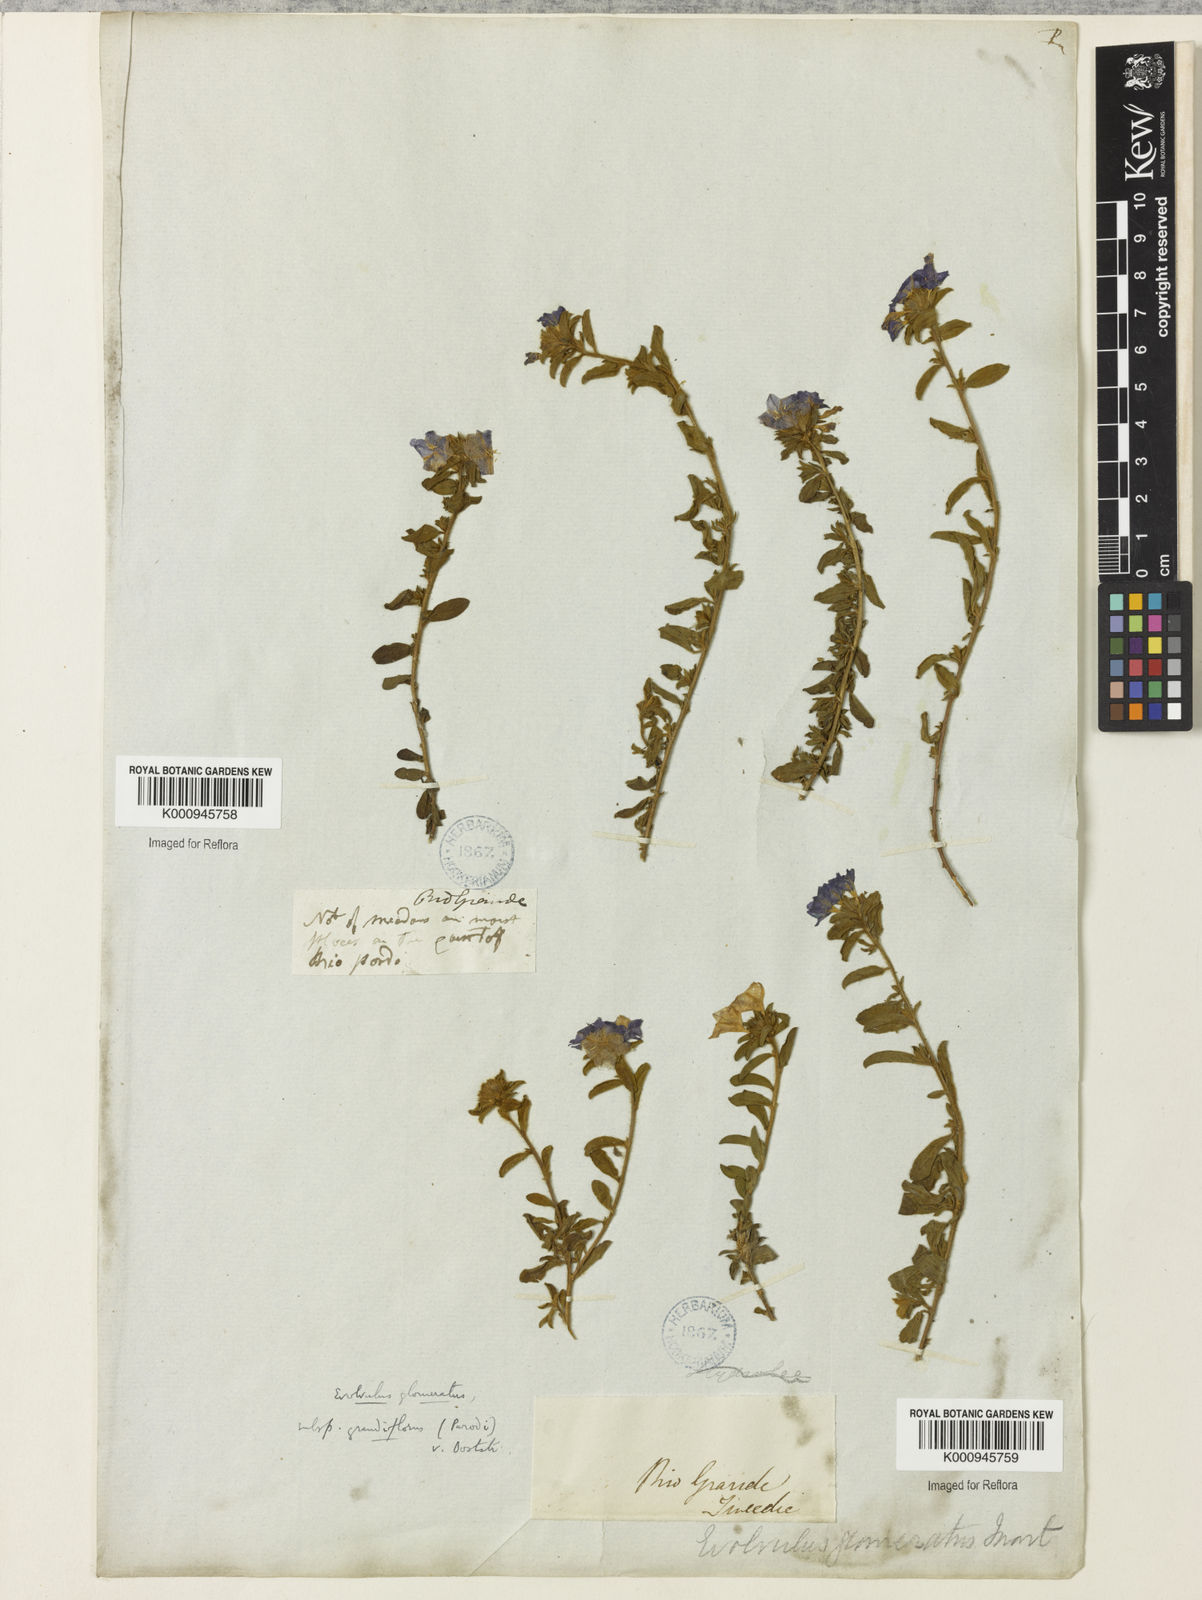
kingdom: Plantae
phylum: Tracheophyta
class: Magnoliopsida
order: Solanales
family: Convolvulaceae
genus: Evolvulus
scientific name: Evolvulus glomeratus
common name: Brazilian dwarf morning-glory
